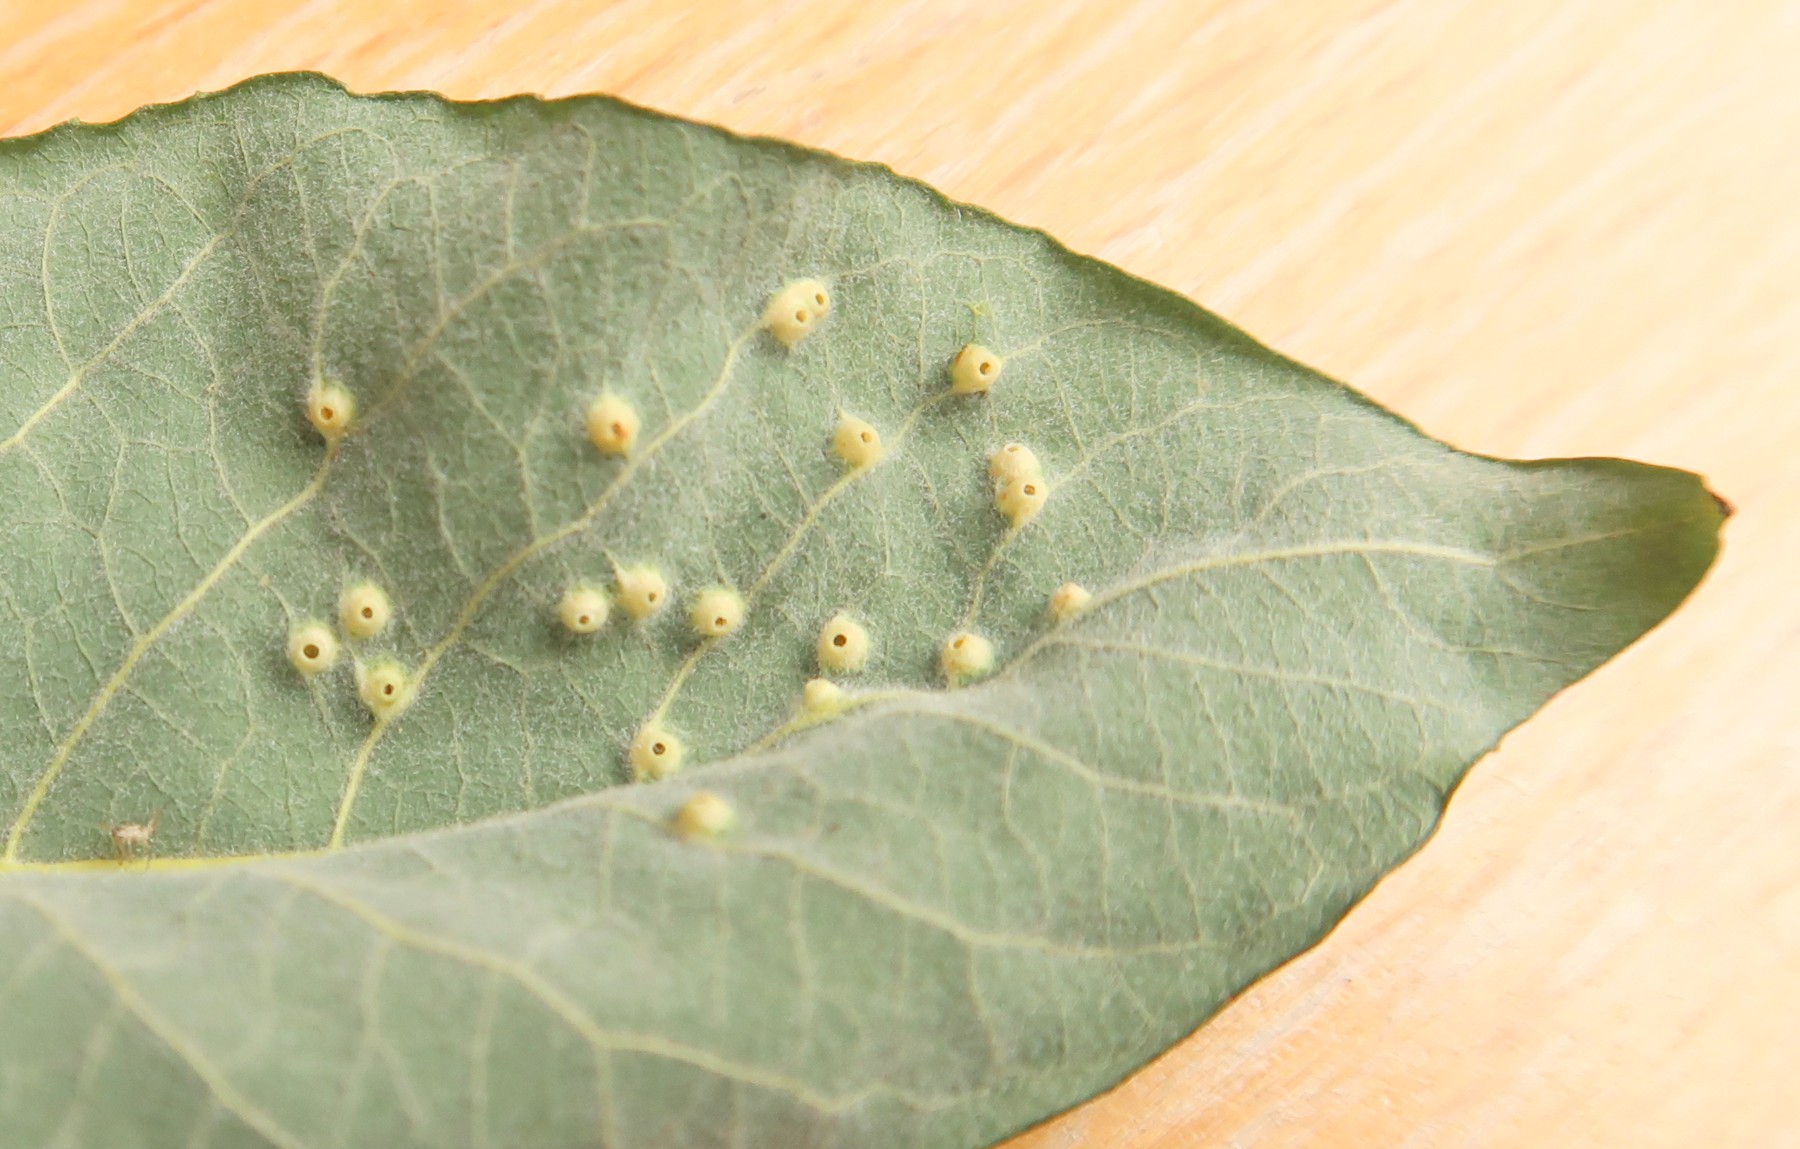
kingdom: Fungi
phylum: Basidiomycota
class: Pucciniomycetes
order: Pucciniales
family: Melampsoraceae
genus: Melampsora
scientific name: Melampsora
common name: skorperust
